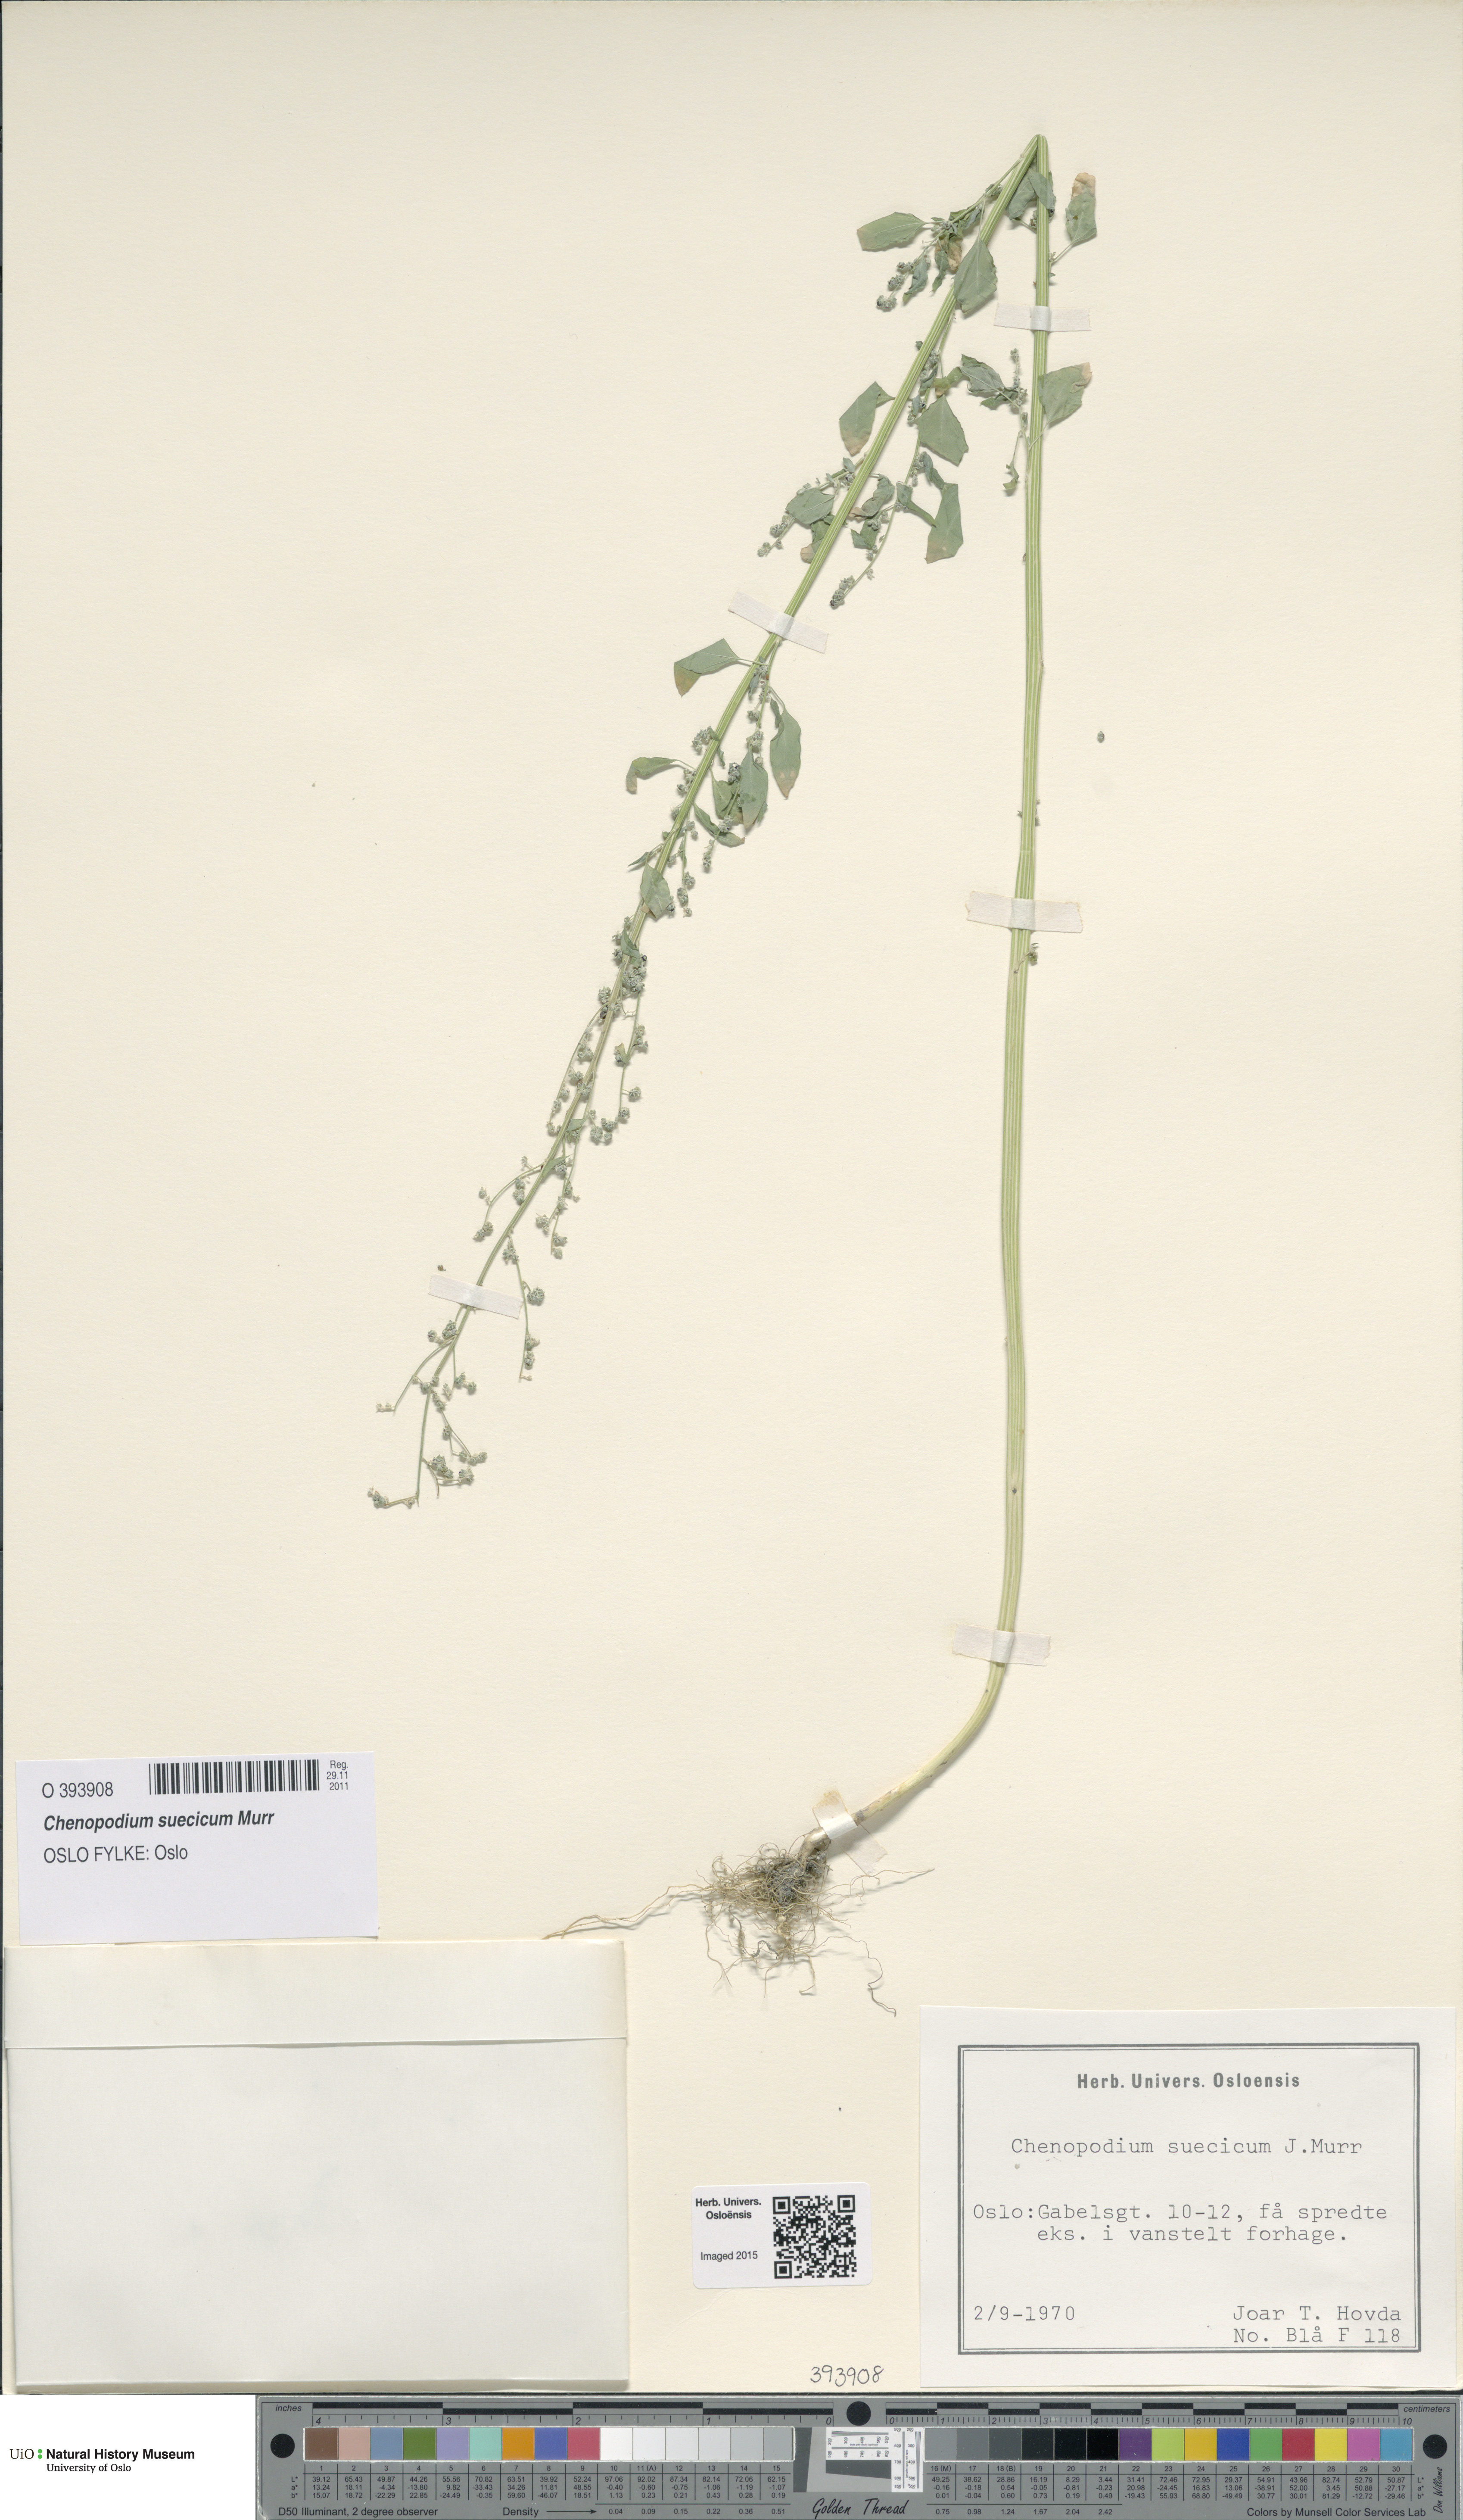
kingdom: Plantae
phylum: Tracheophyta
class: Magnoliopsida
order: Caryophyllales
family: Amaranthaceae
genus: Chenopodium
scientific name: Chenopodium suecicum
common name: Swedish goosefoot
